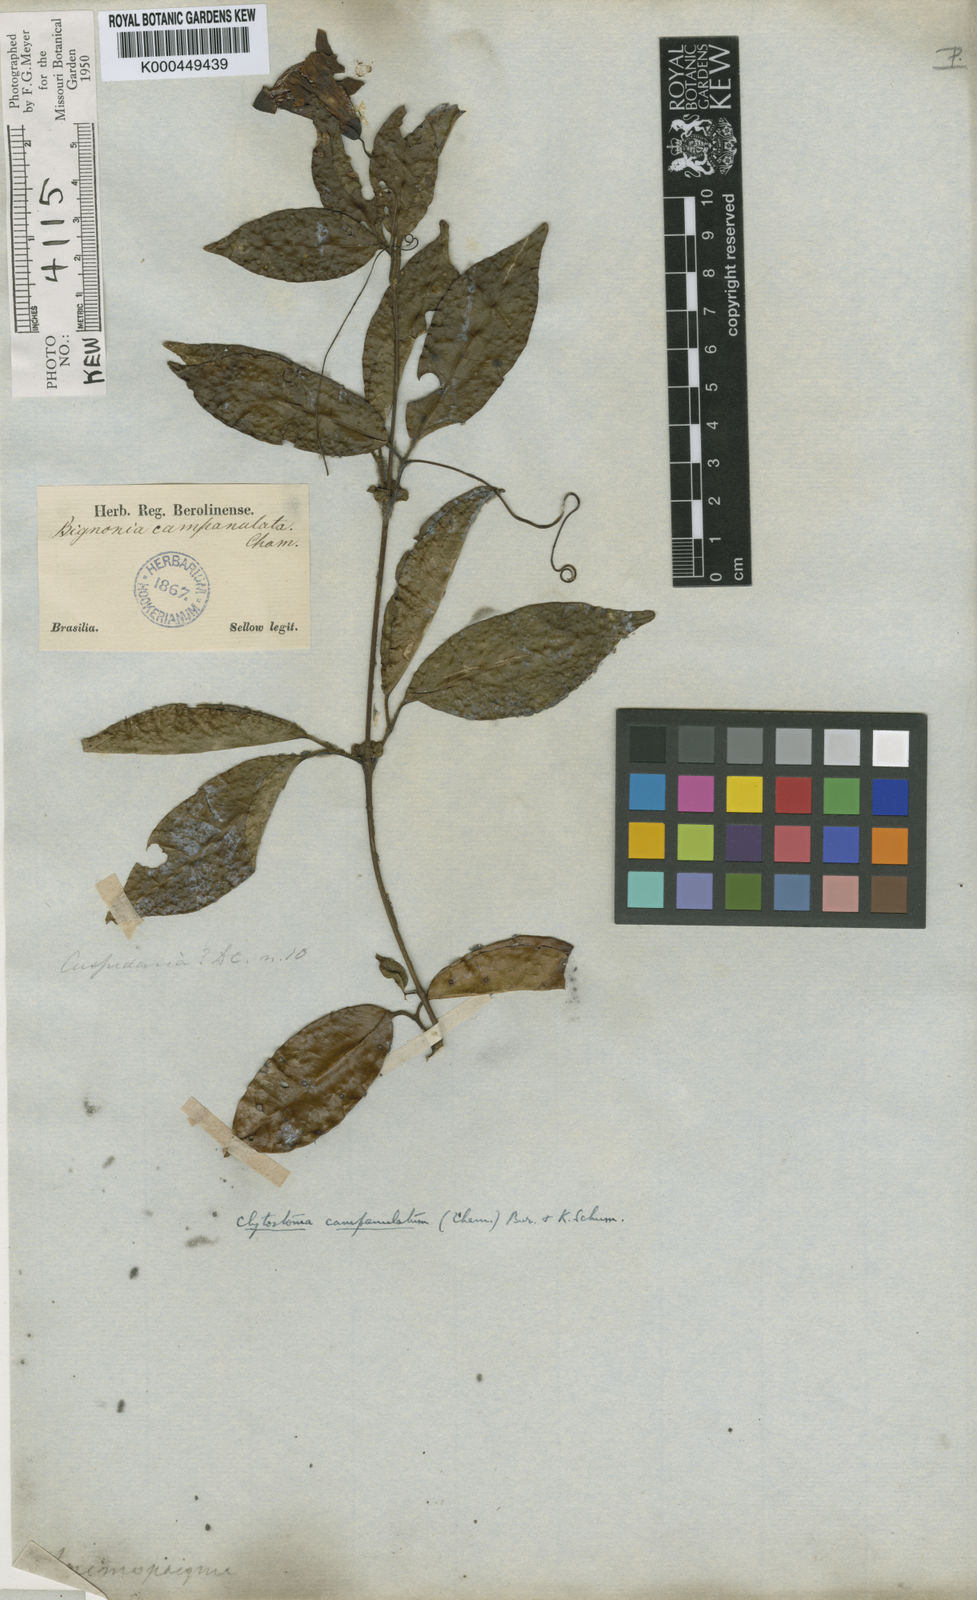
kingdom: Plantae
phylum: Tracheophyta
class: Magnoliopsida
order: Lamiales
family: Bignoniaceae
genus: Bignonia
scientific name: Bignonia campanulata
